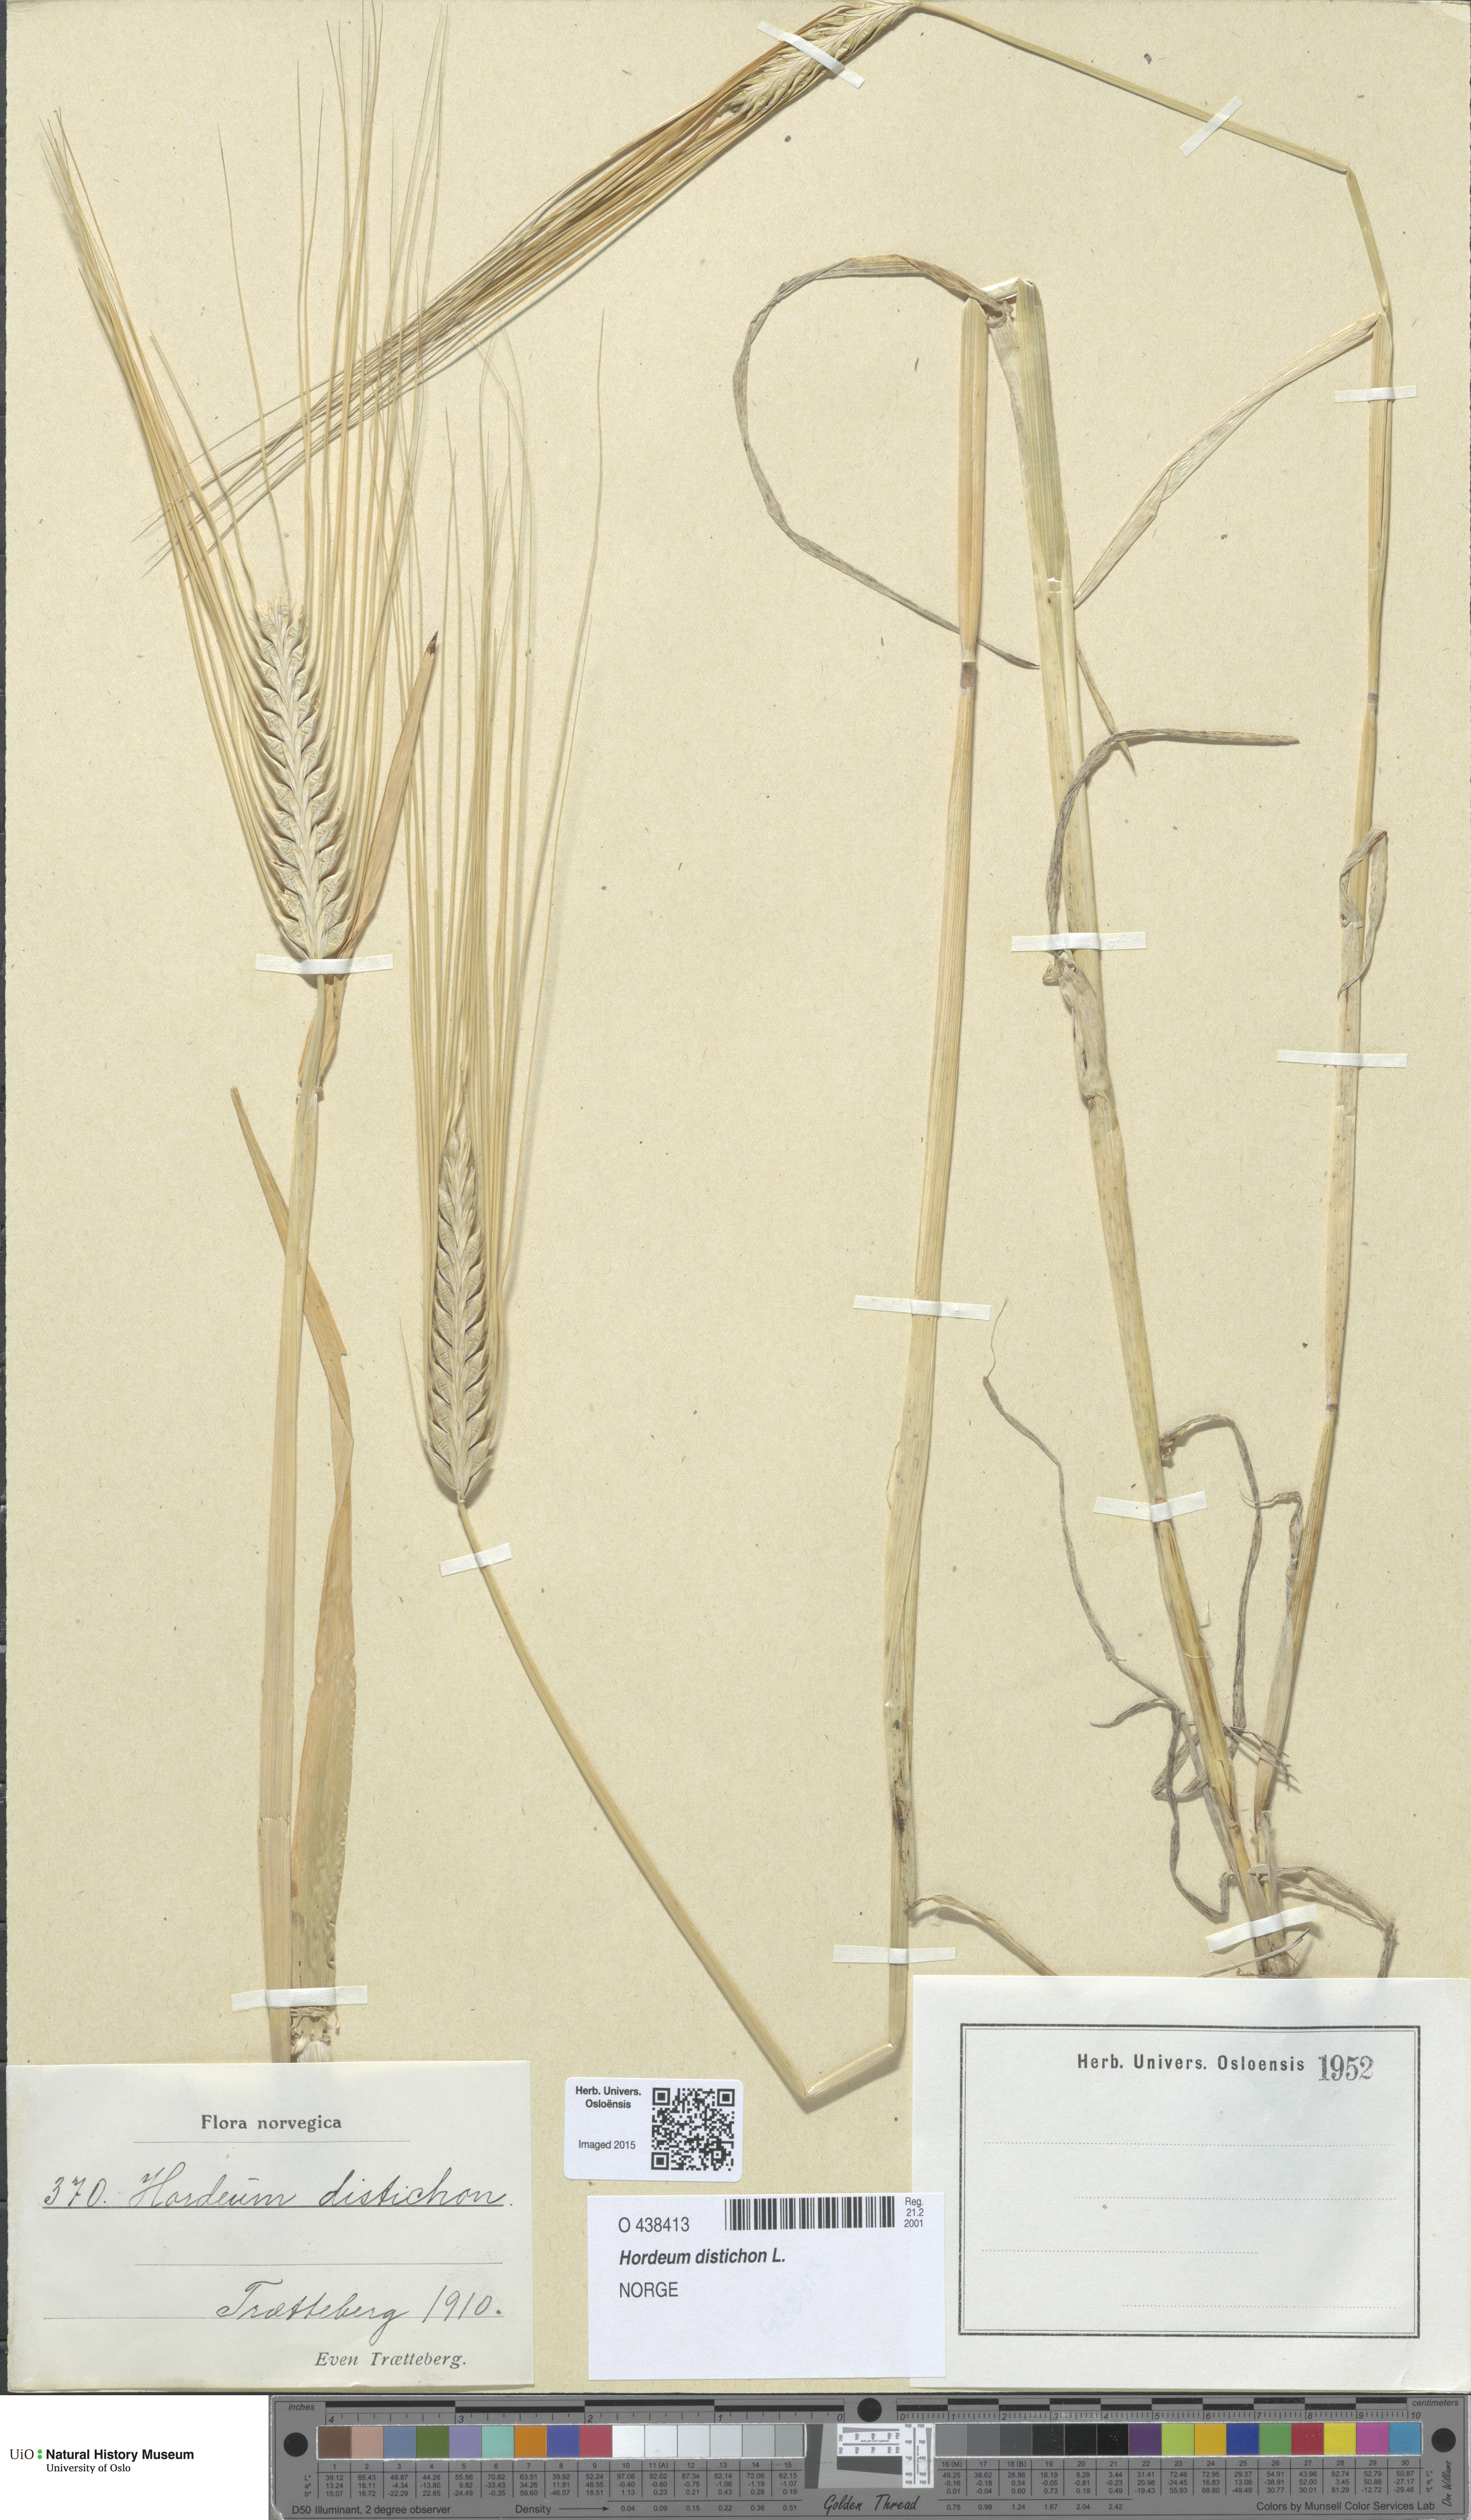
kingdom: Plantae
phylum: Tracheophyta
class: Liliopsida
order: Poales
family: Poaceae
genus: Hordeum
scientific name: Hordeum distichon
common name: Two-rowed barley
